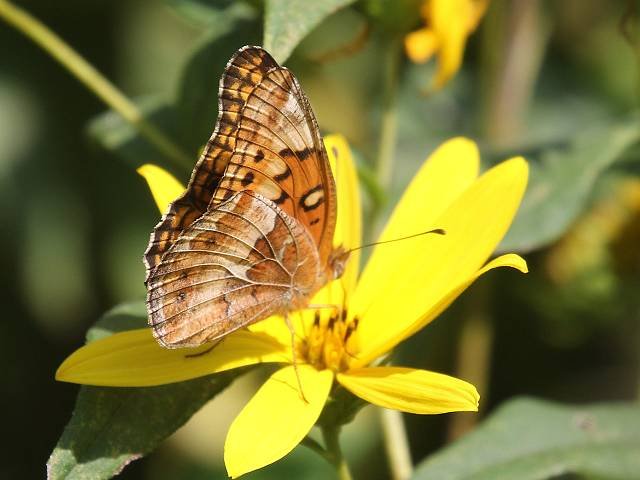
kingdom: Animalia
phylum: Arthropoda
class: Insecta
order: Lepidoptera
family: Nymphalidae
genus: Euptoieta
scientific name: Euptoieta claudia
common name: Variegated Fritillary
